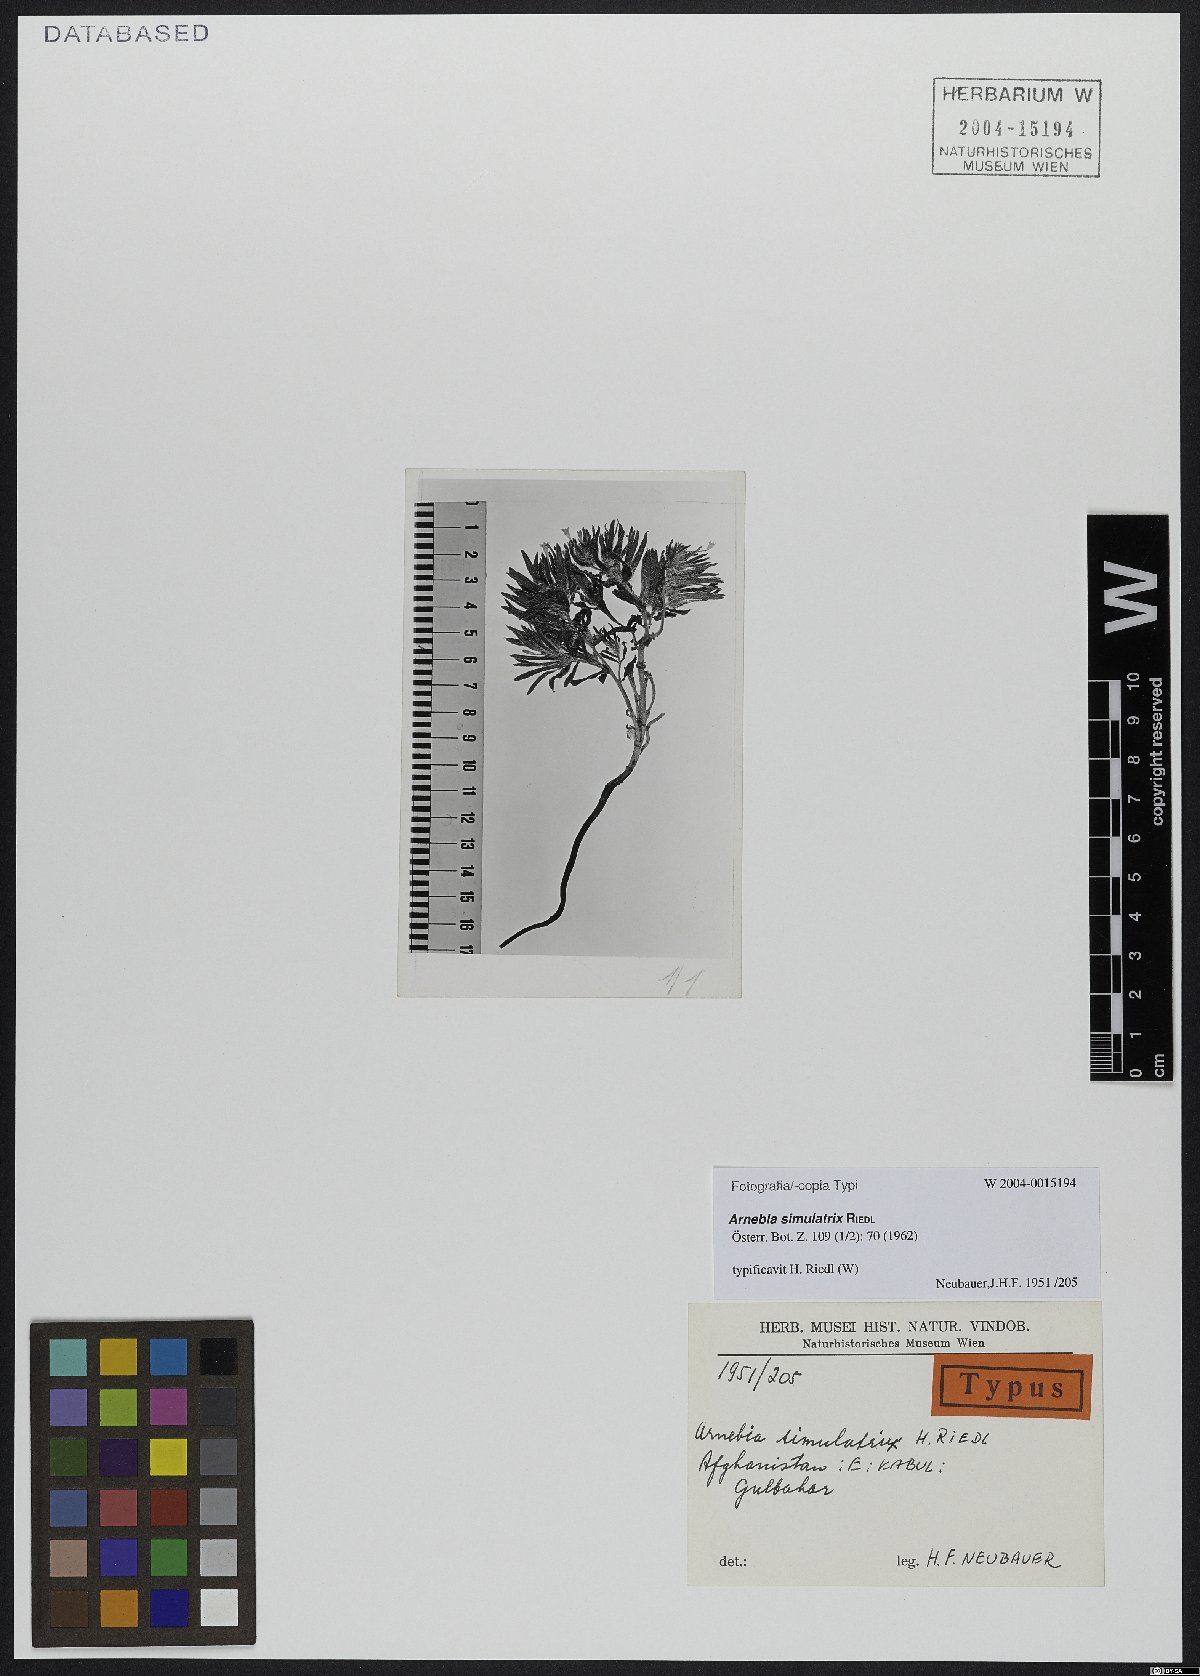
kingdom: Plantae
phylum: Tracheophyta
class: Magnoliopsida
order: Boraginales
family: Boraginaceae
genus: Arnebia
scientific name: Arnebia linearifolia
